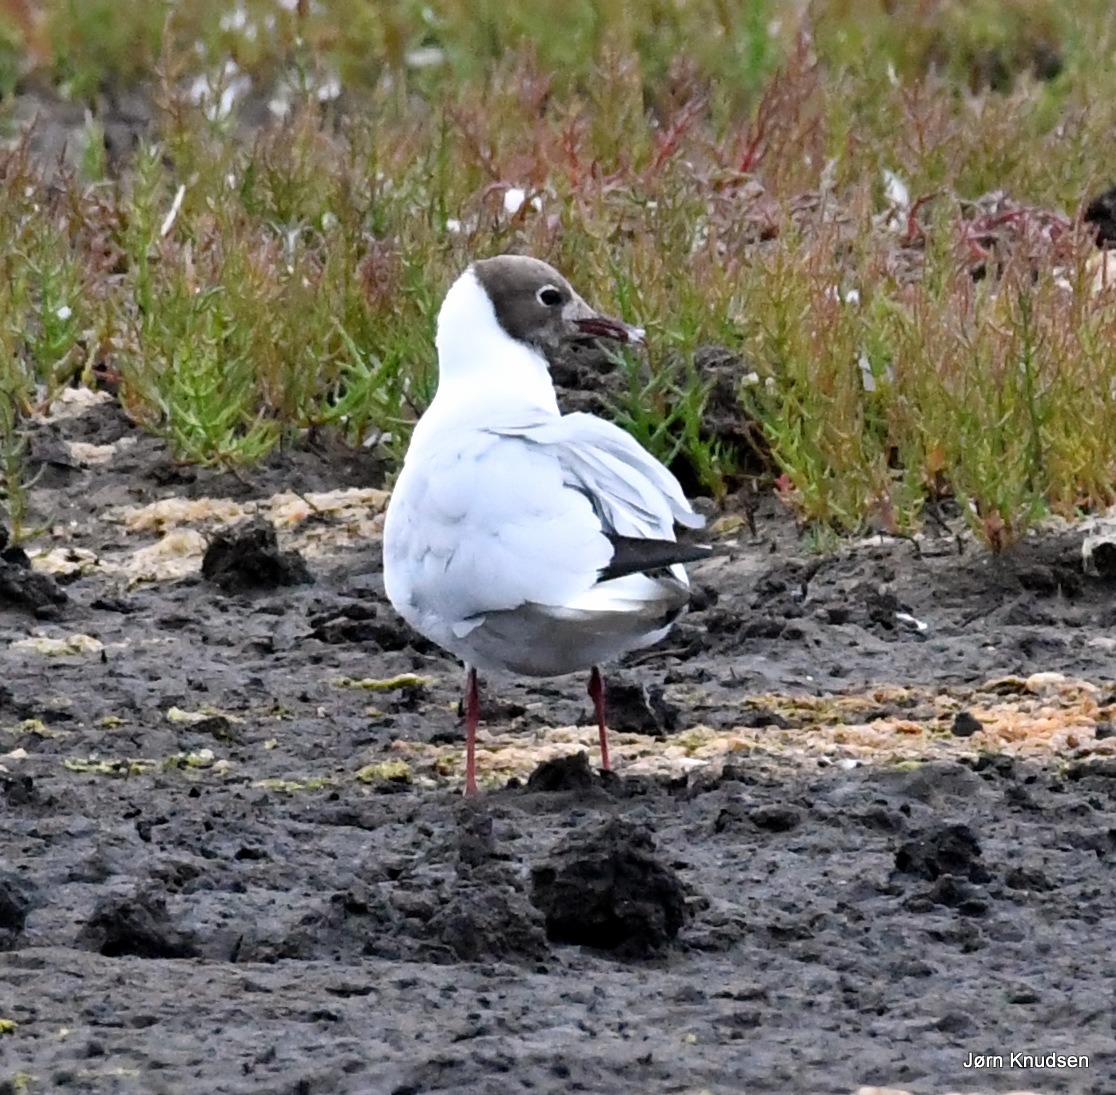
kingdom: Animalia
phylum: Chordata
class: Aves
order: Charadriiformes
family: Laridae
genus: Chroicocephalus
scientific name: Chroicocephalus ridibundus
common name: Hættemåge
